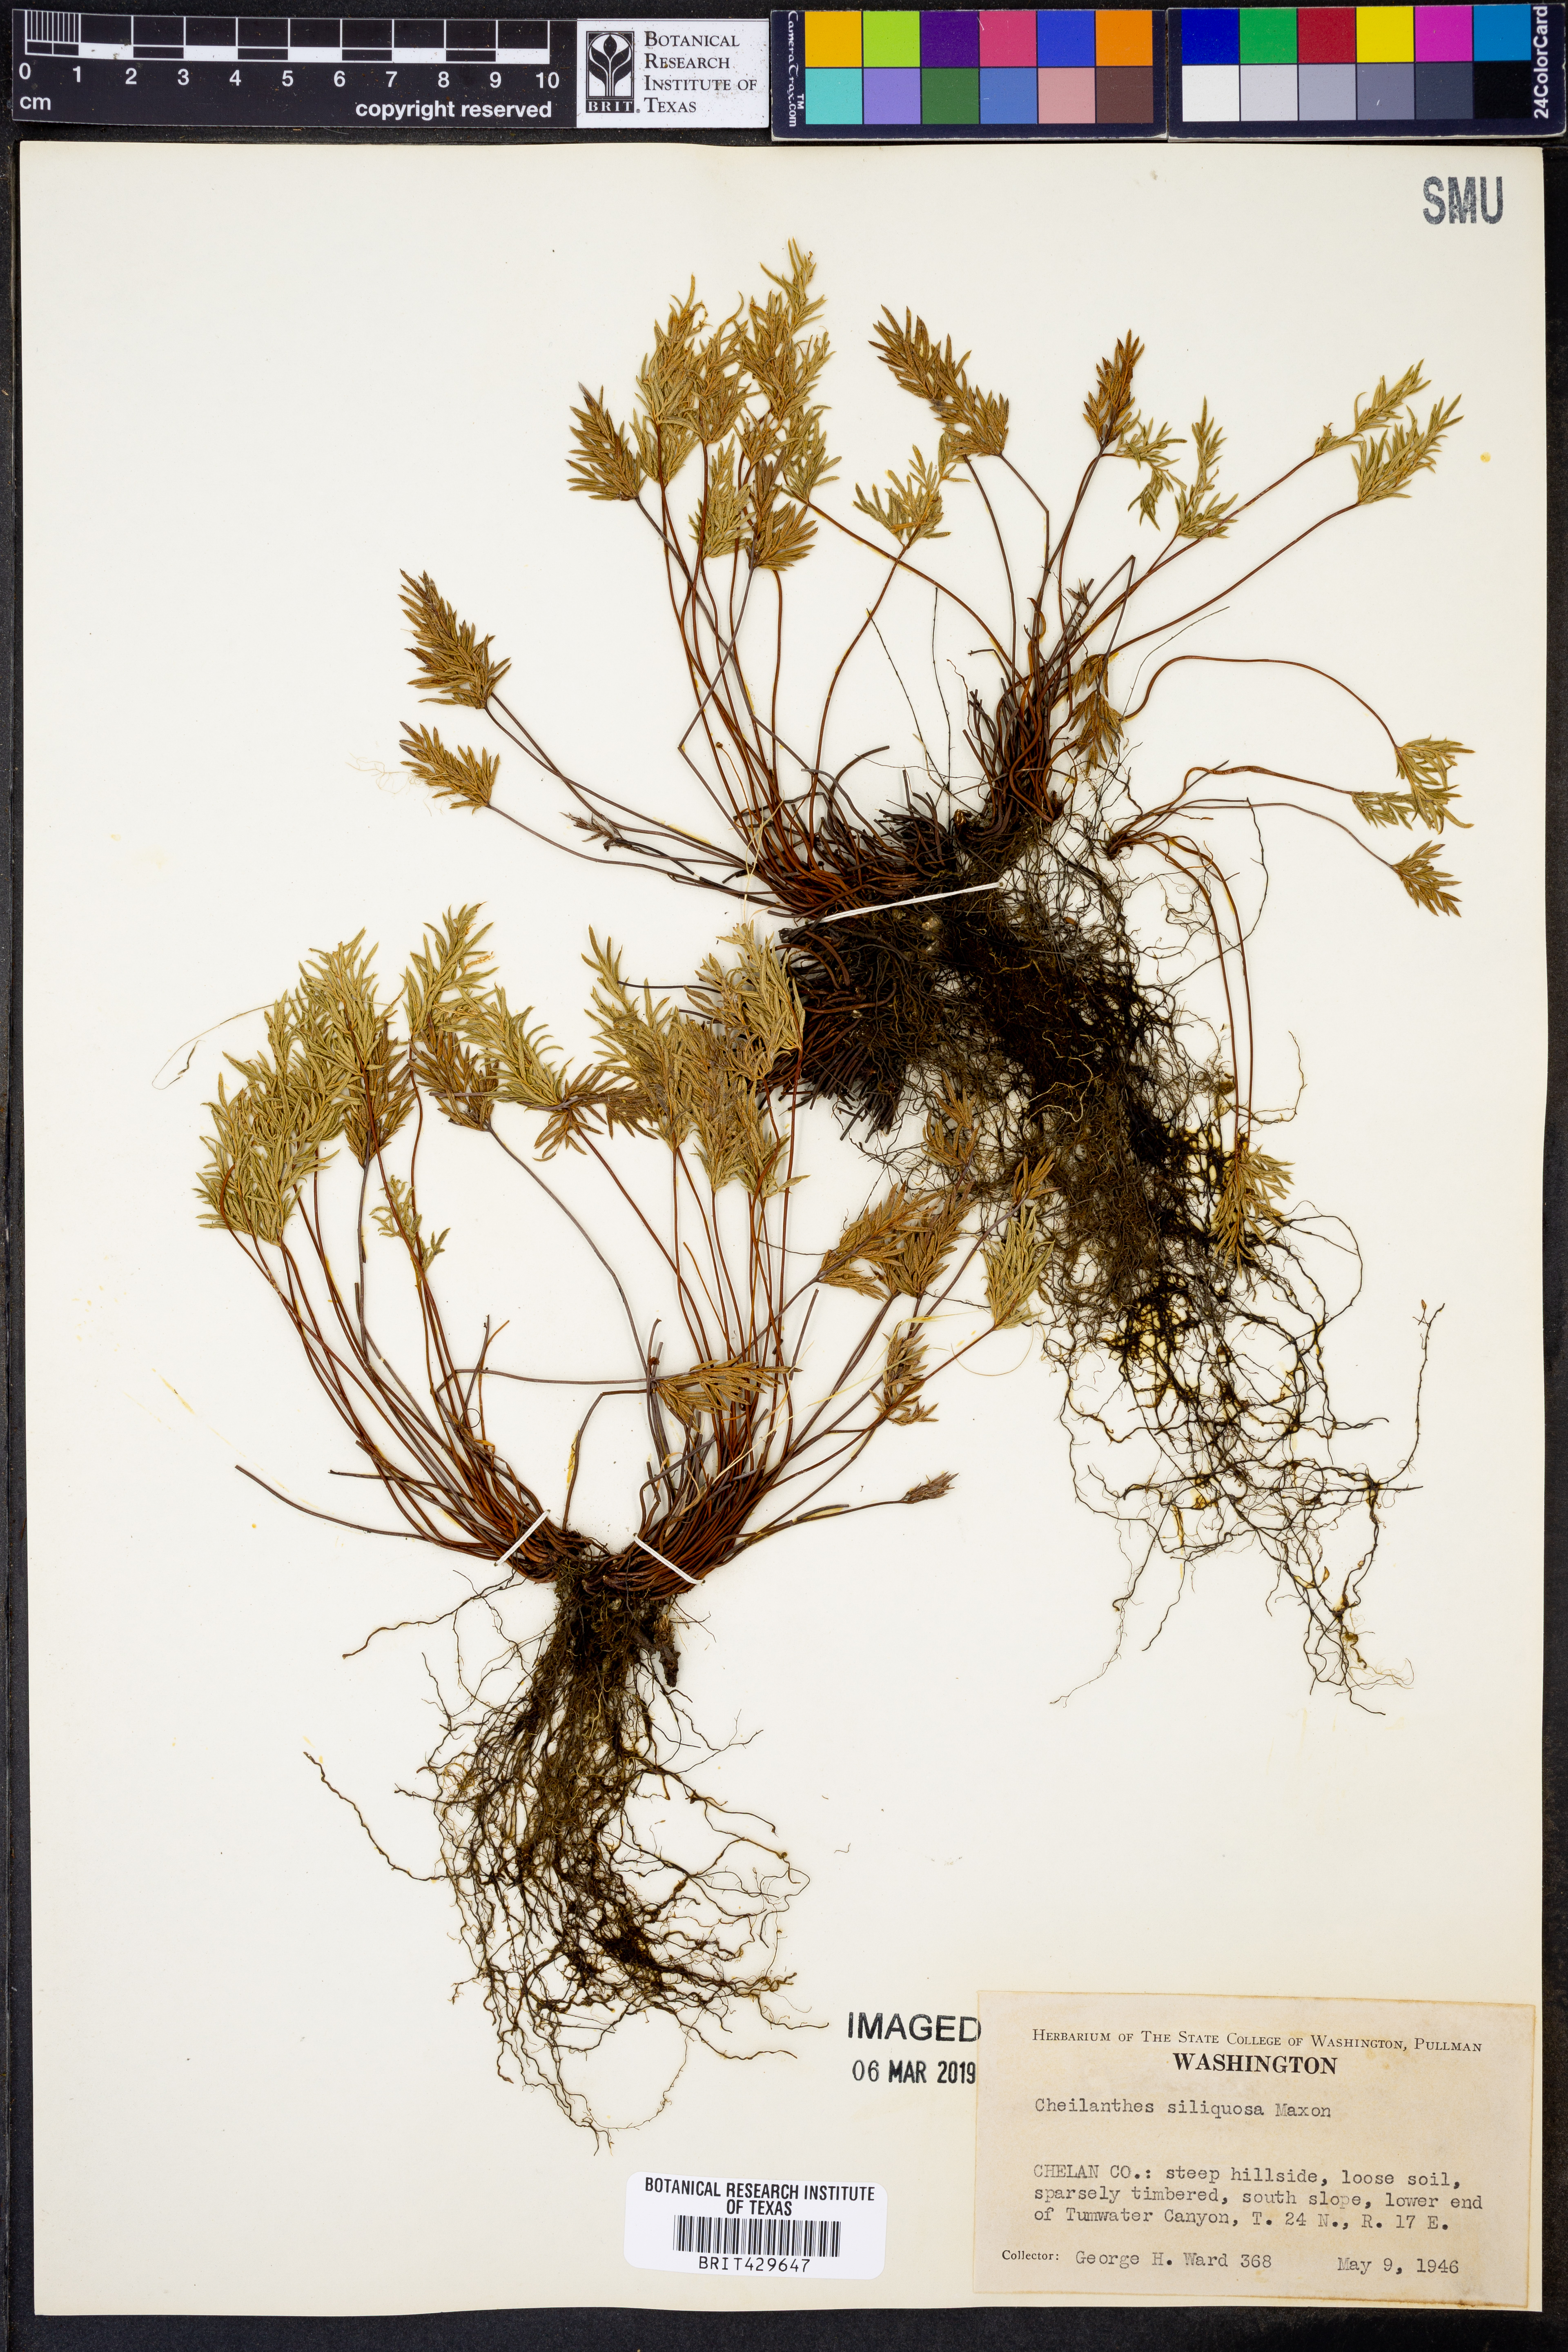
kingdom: Plantae
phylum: Tracheophyta
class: Polypodiopsida
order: Polypodiales
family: Pteridaceae
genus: Aspidotis
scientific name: Aspidotis densa
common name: Indian's dream
